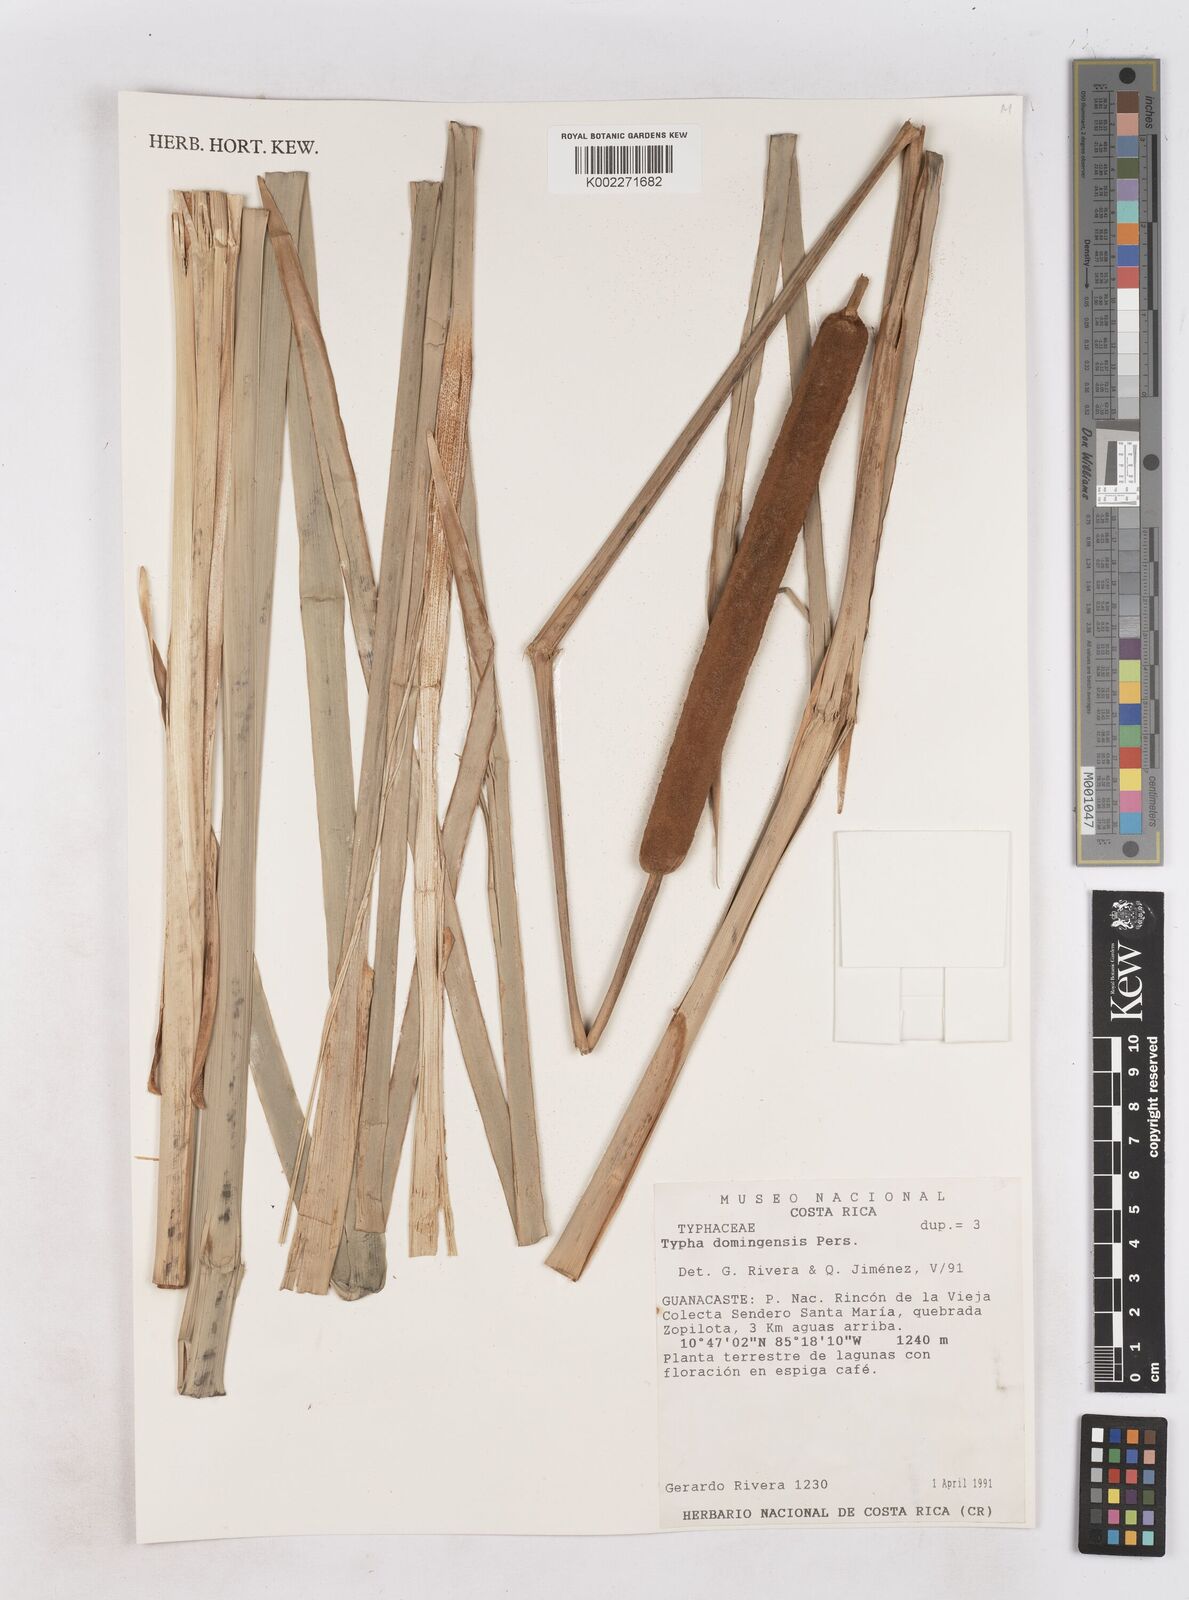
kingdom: Plantae
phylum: Tracheophyta
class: Liliopsida
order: Poales
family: Typhaceae
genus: Typha
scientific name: Typha domingensis
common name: Southern cattail
